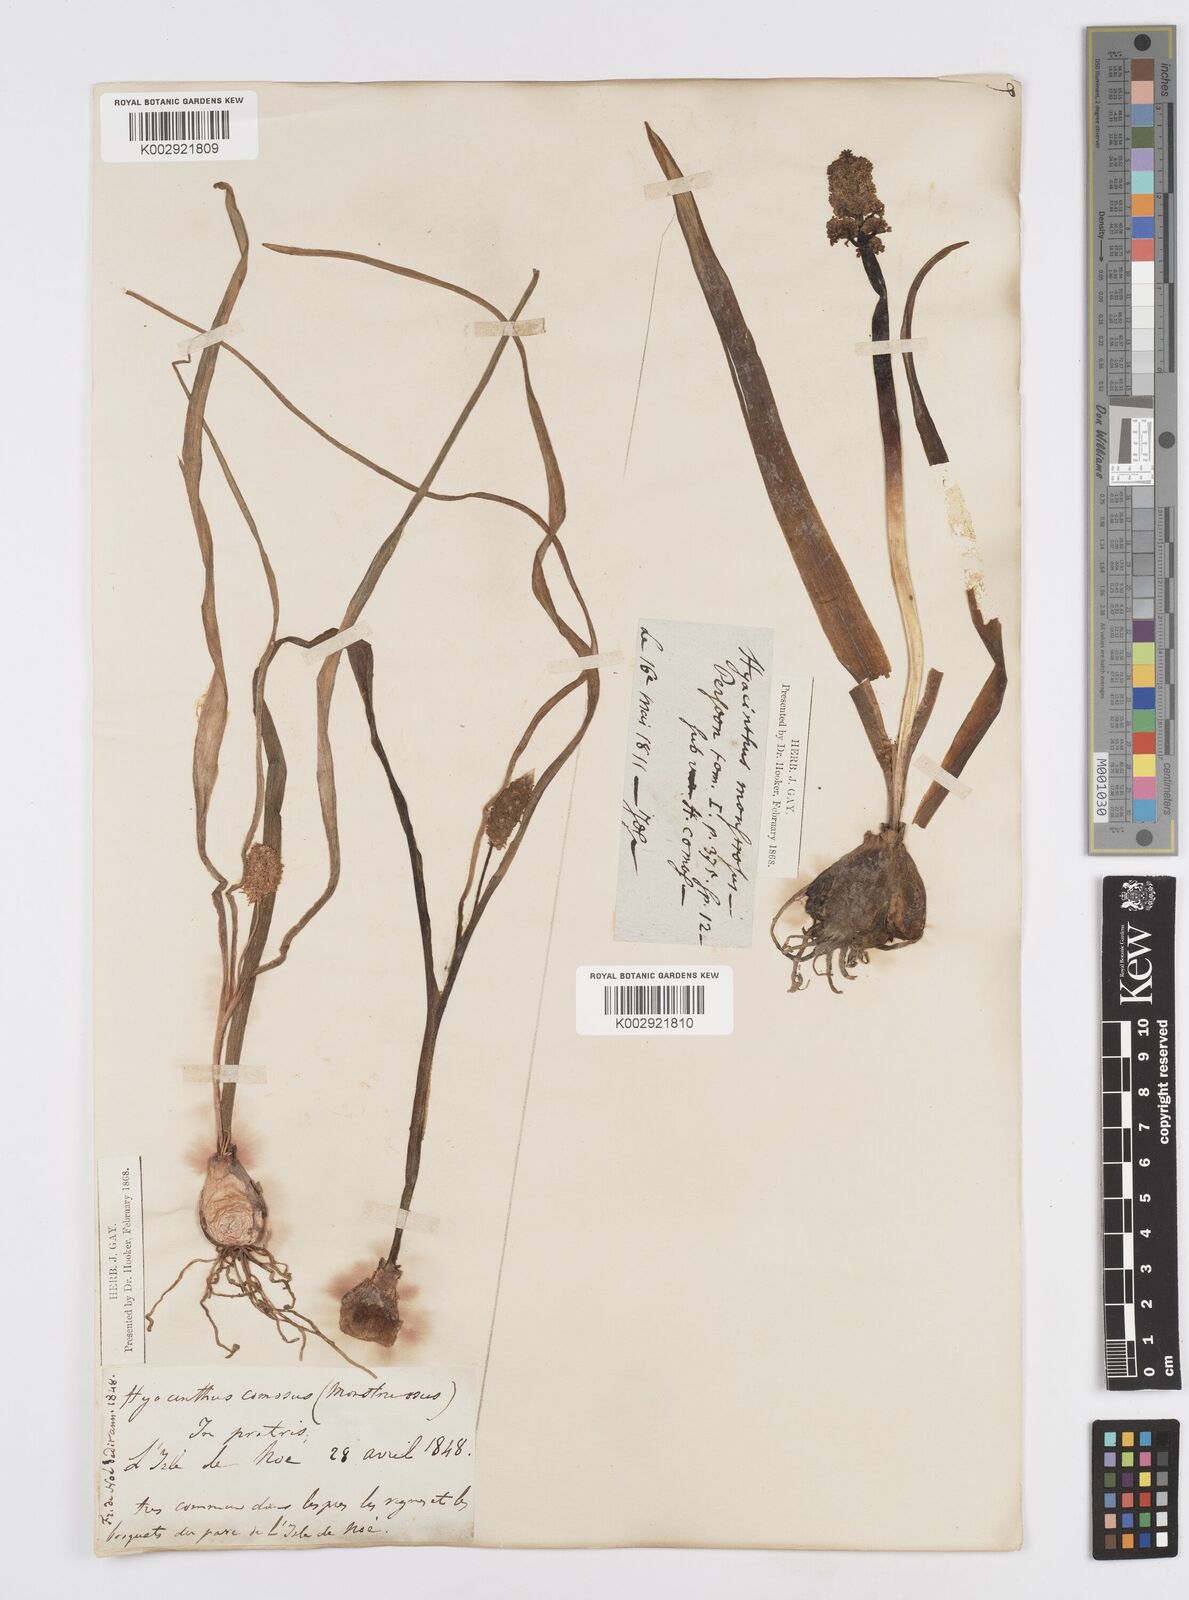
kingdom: Plantae
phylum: Tracheophyta
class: Liliopsida
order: Asparagales
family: Asparagaceae
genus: Muscari
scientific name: Muscari comosum
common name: Tassel hyacinth
